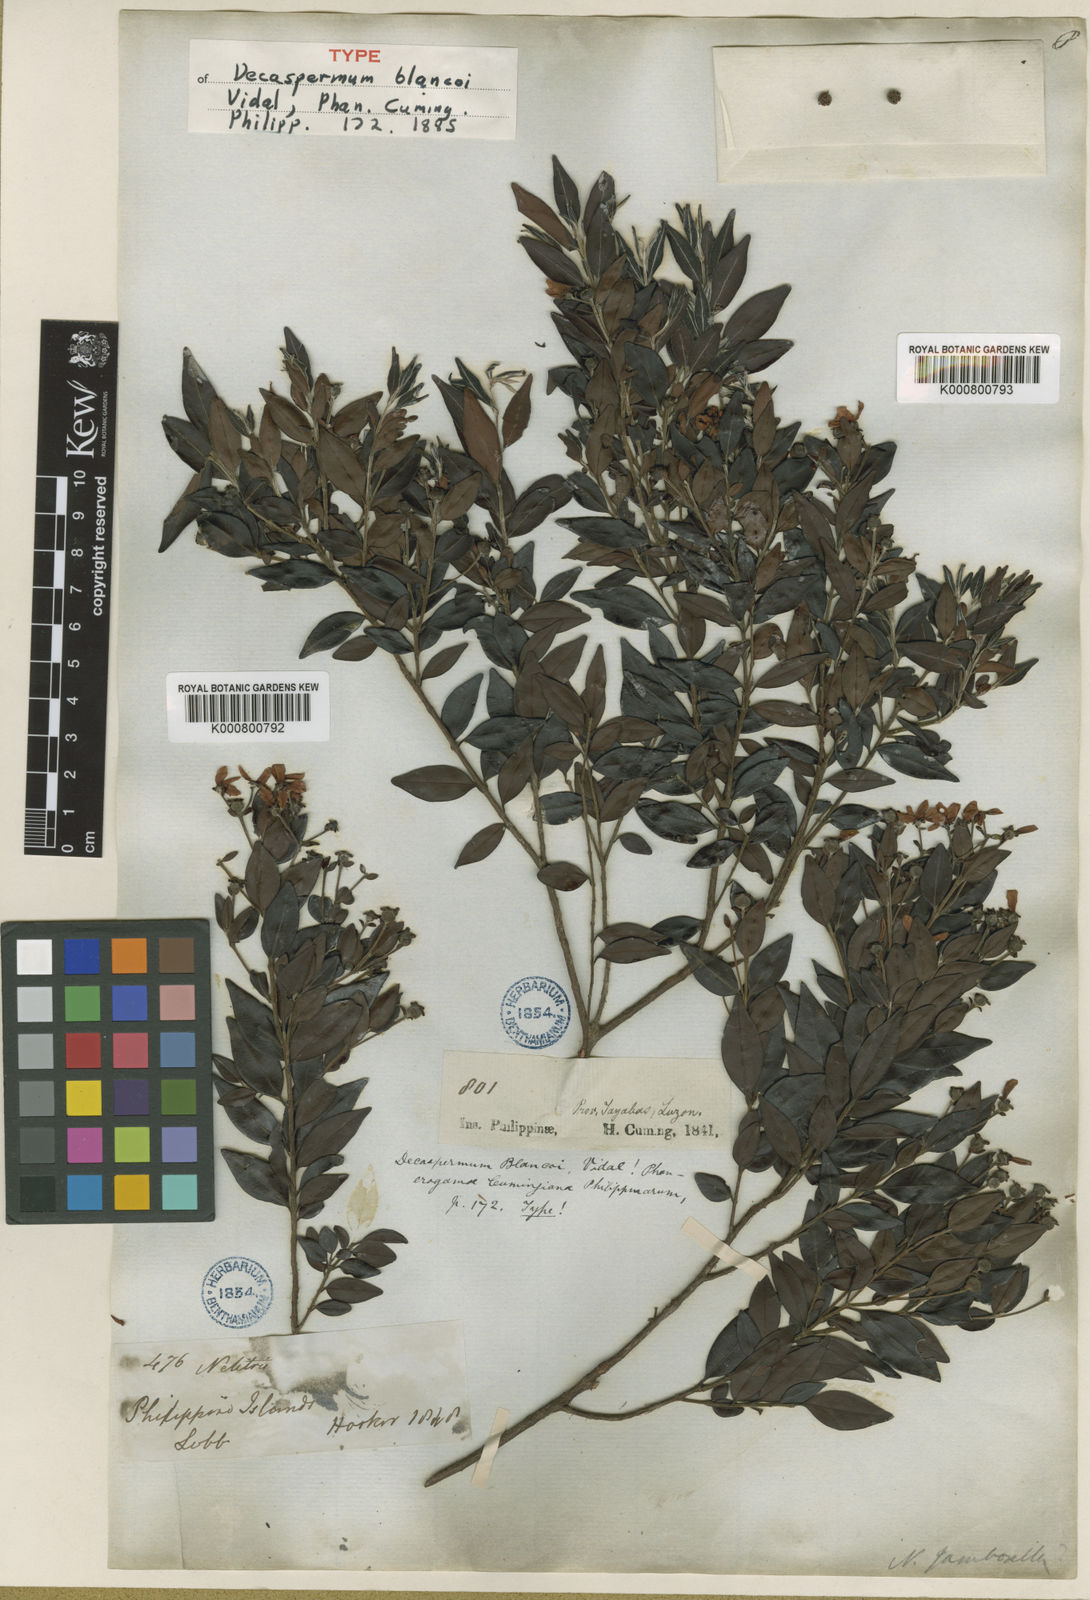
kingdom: Plantae
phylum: Tracheophyta
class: Magnoliopsida
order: Myrtales
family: Myrtaceae
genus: Decaspermum
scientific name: Decaspermum blancoi
